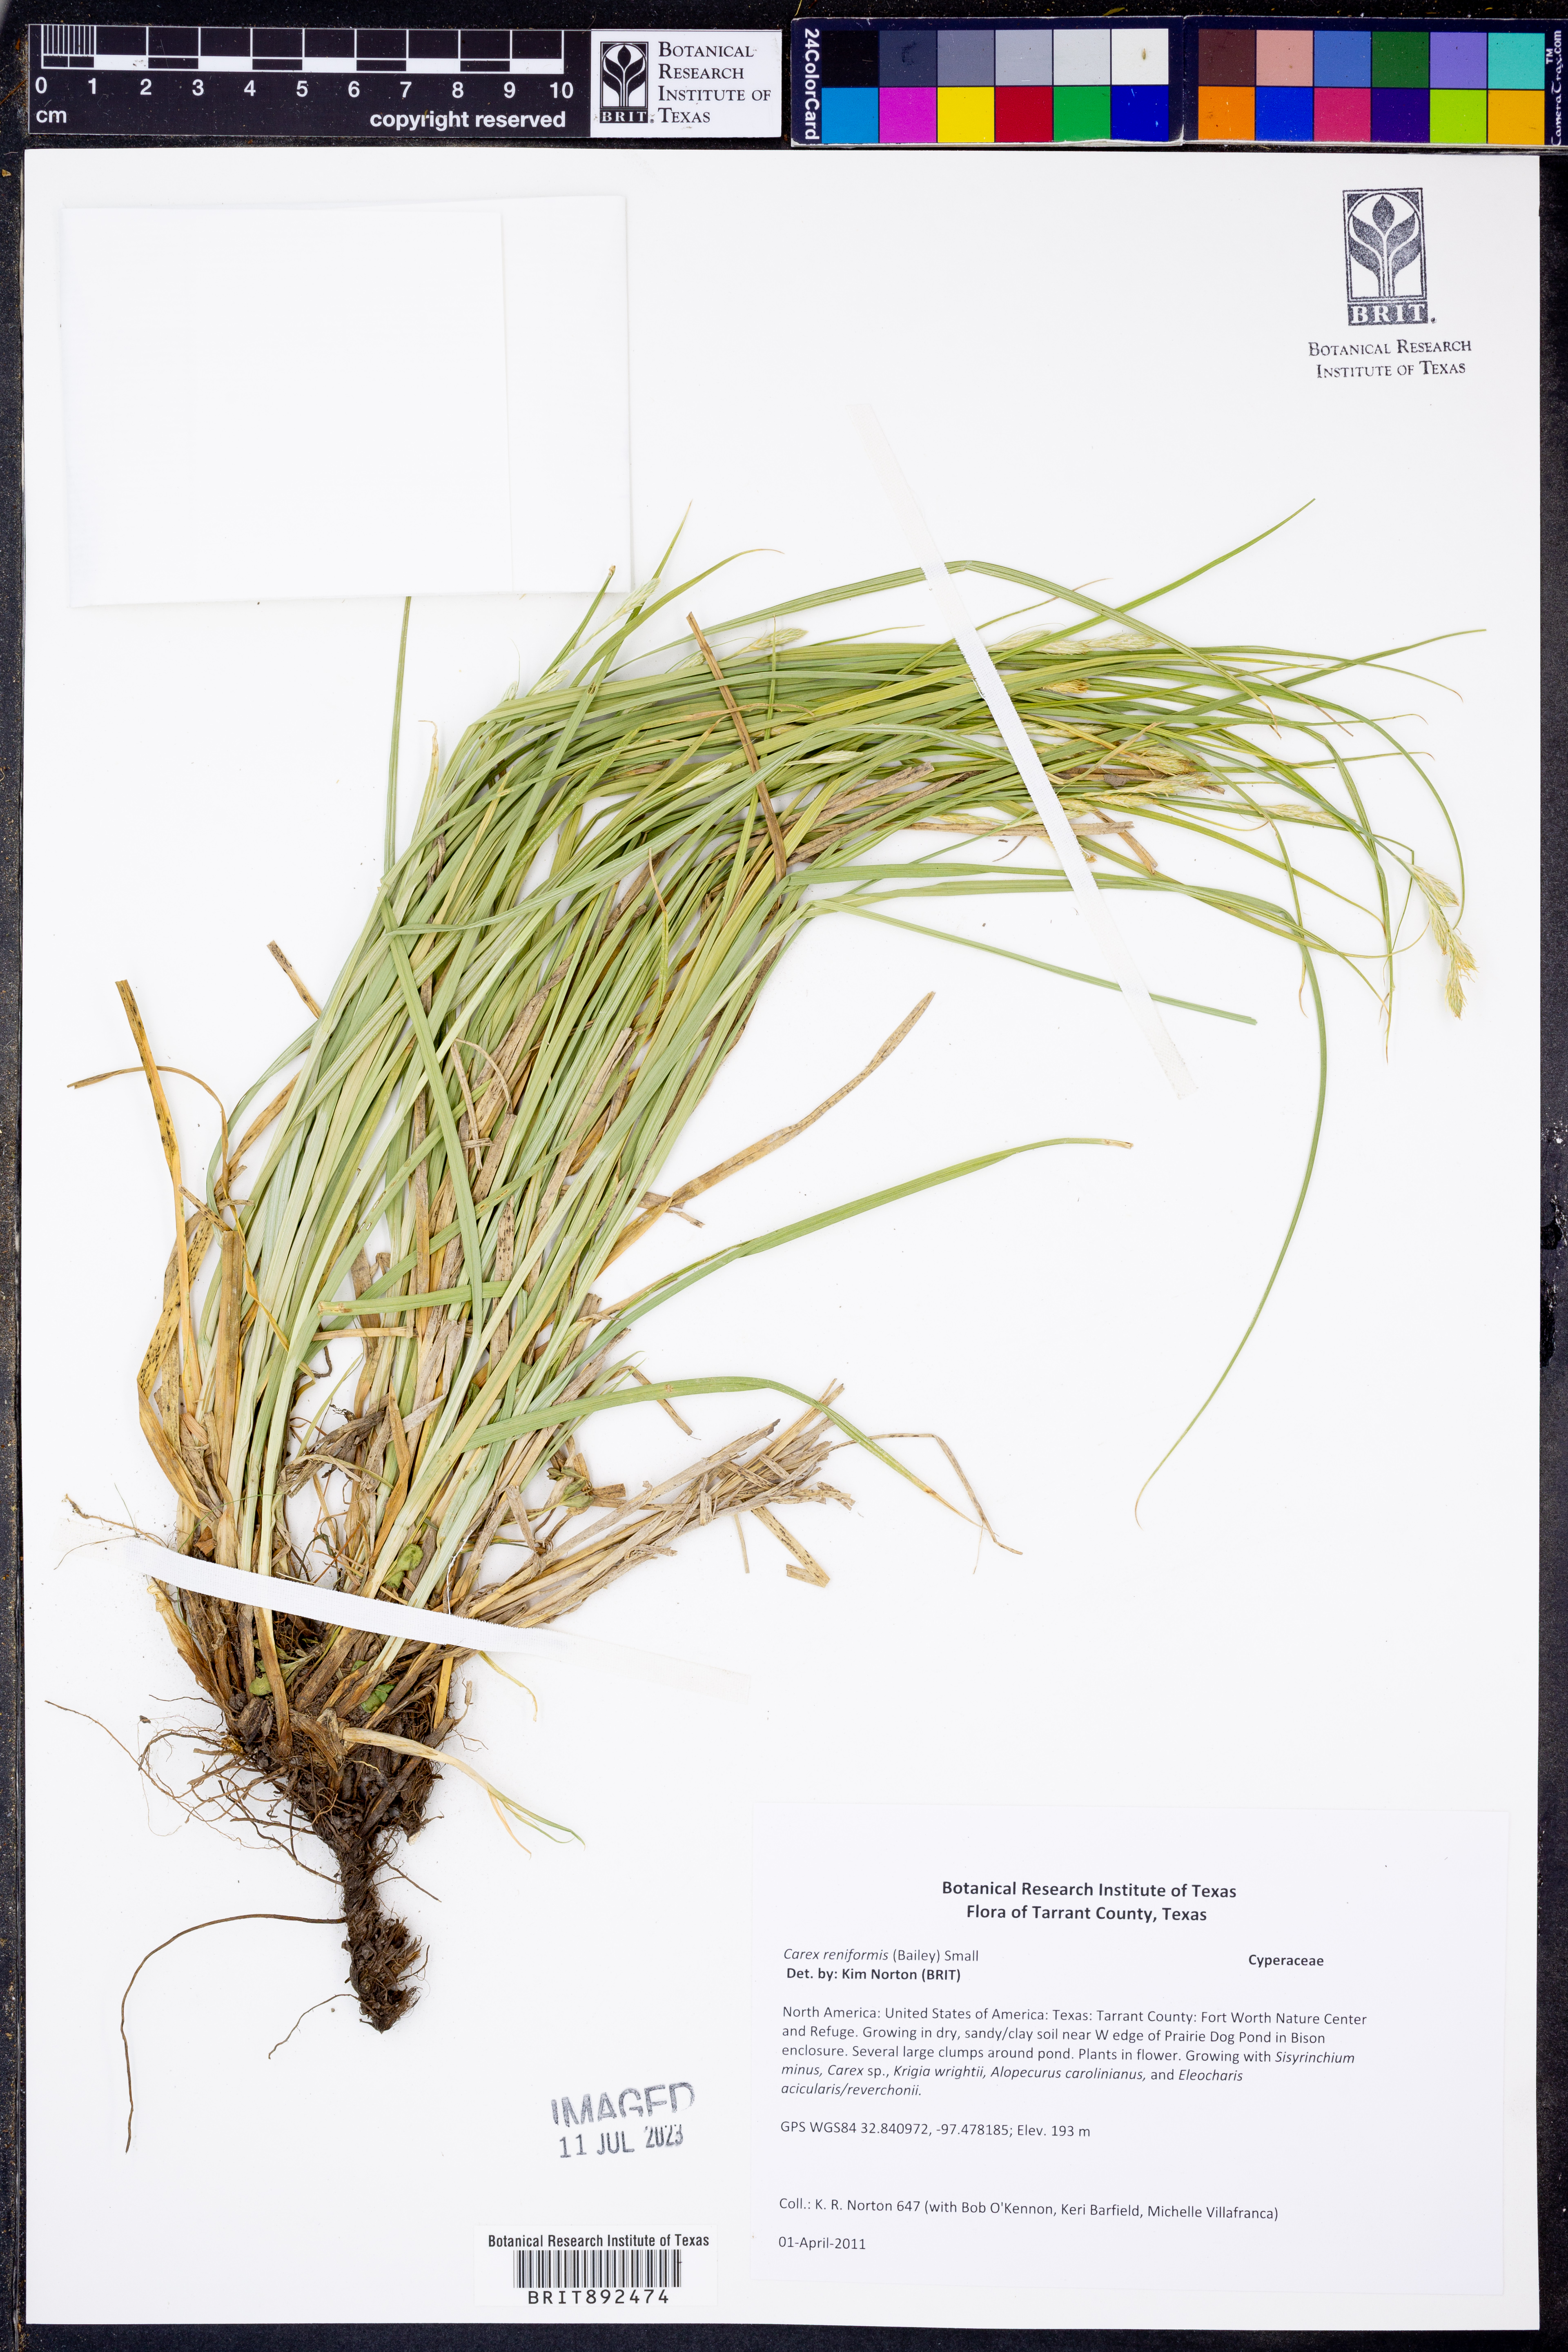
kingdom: Plantae
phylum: Tracheophyta
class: Liliopsida
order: Poales
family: Cyperaceae
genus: Carex
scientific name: Carex reniformis
